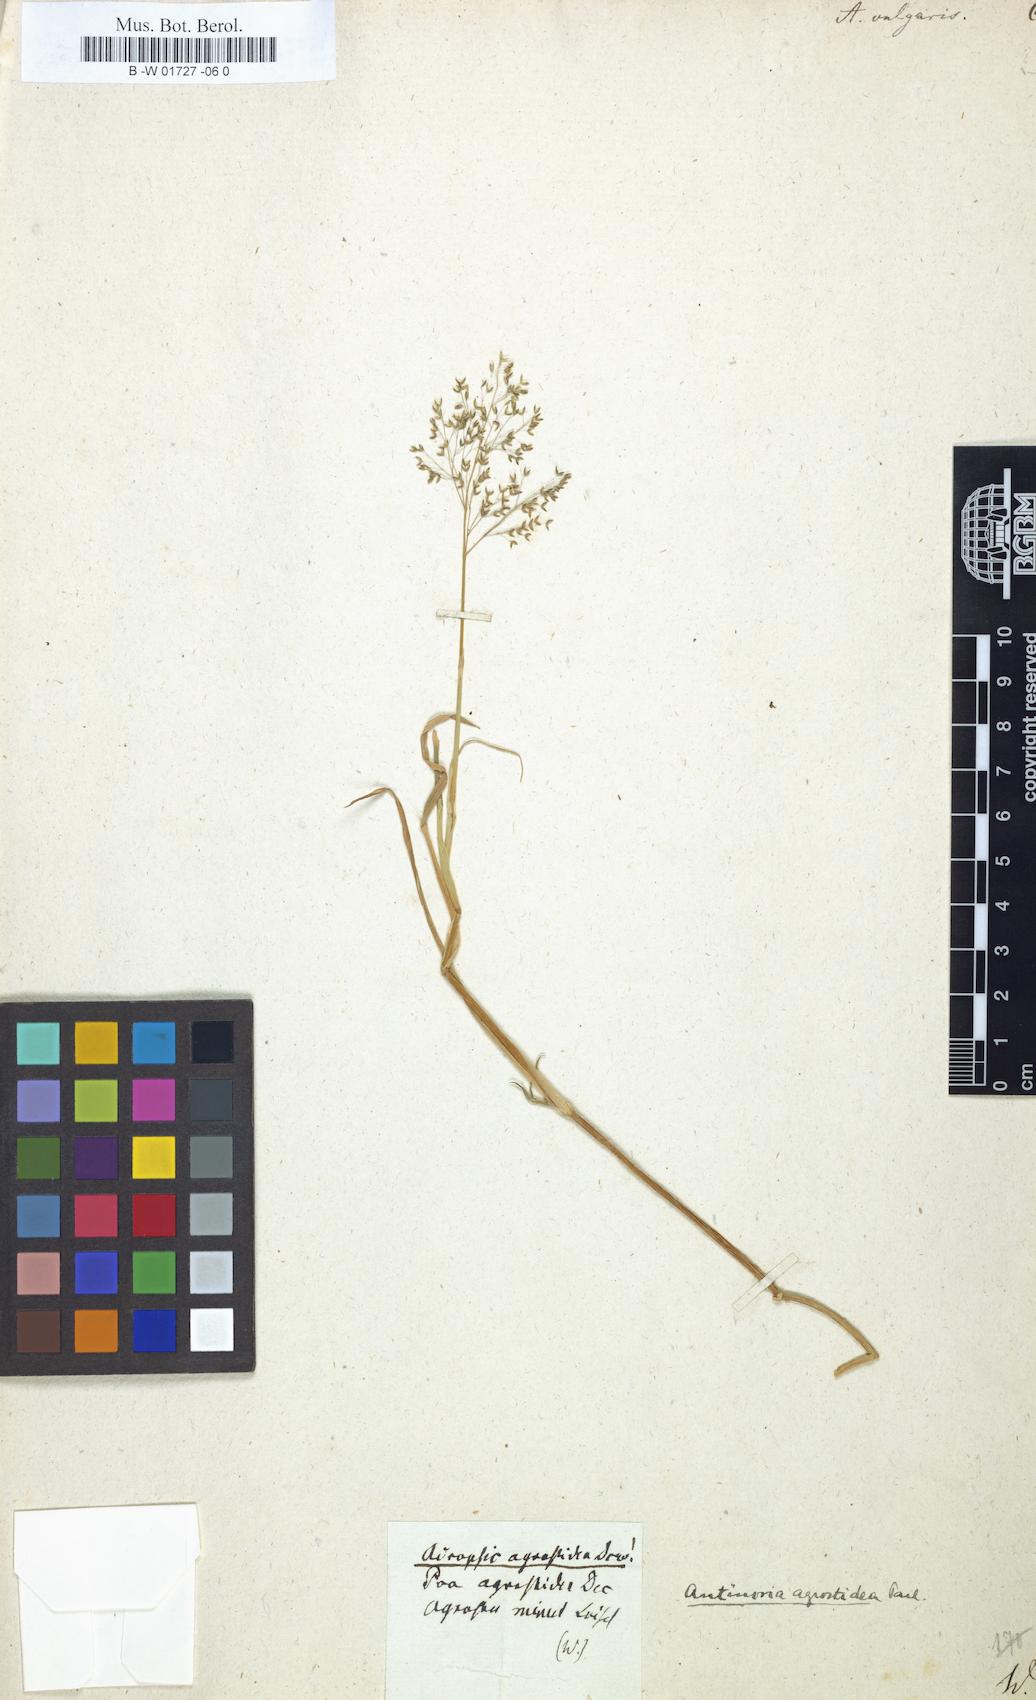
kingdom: Plantae
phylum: Tracheophyta
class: Liliopsida
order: Poales
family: Poaceae
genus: Agrostis
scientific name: Agrostis capillaris
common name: Colonial bentgrass
